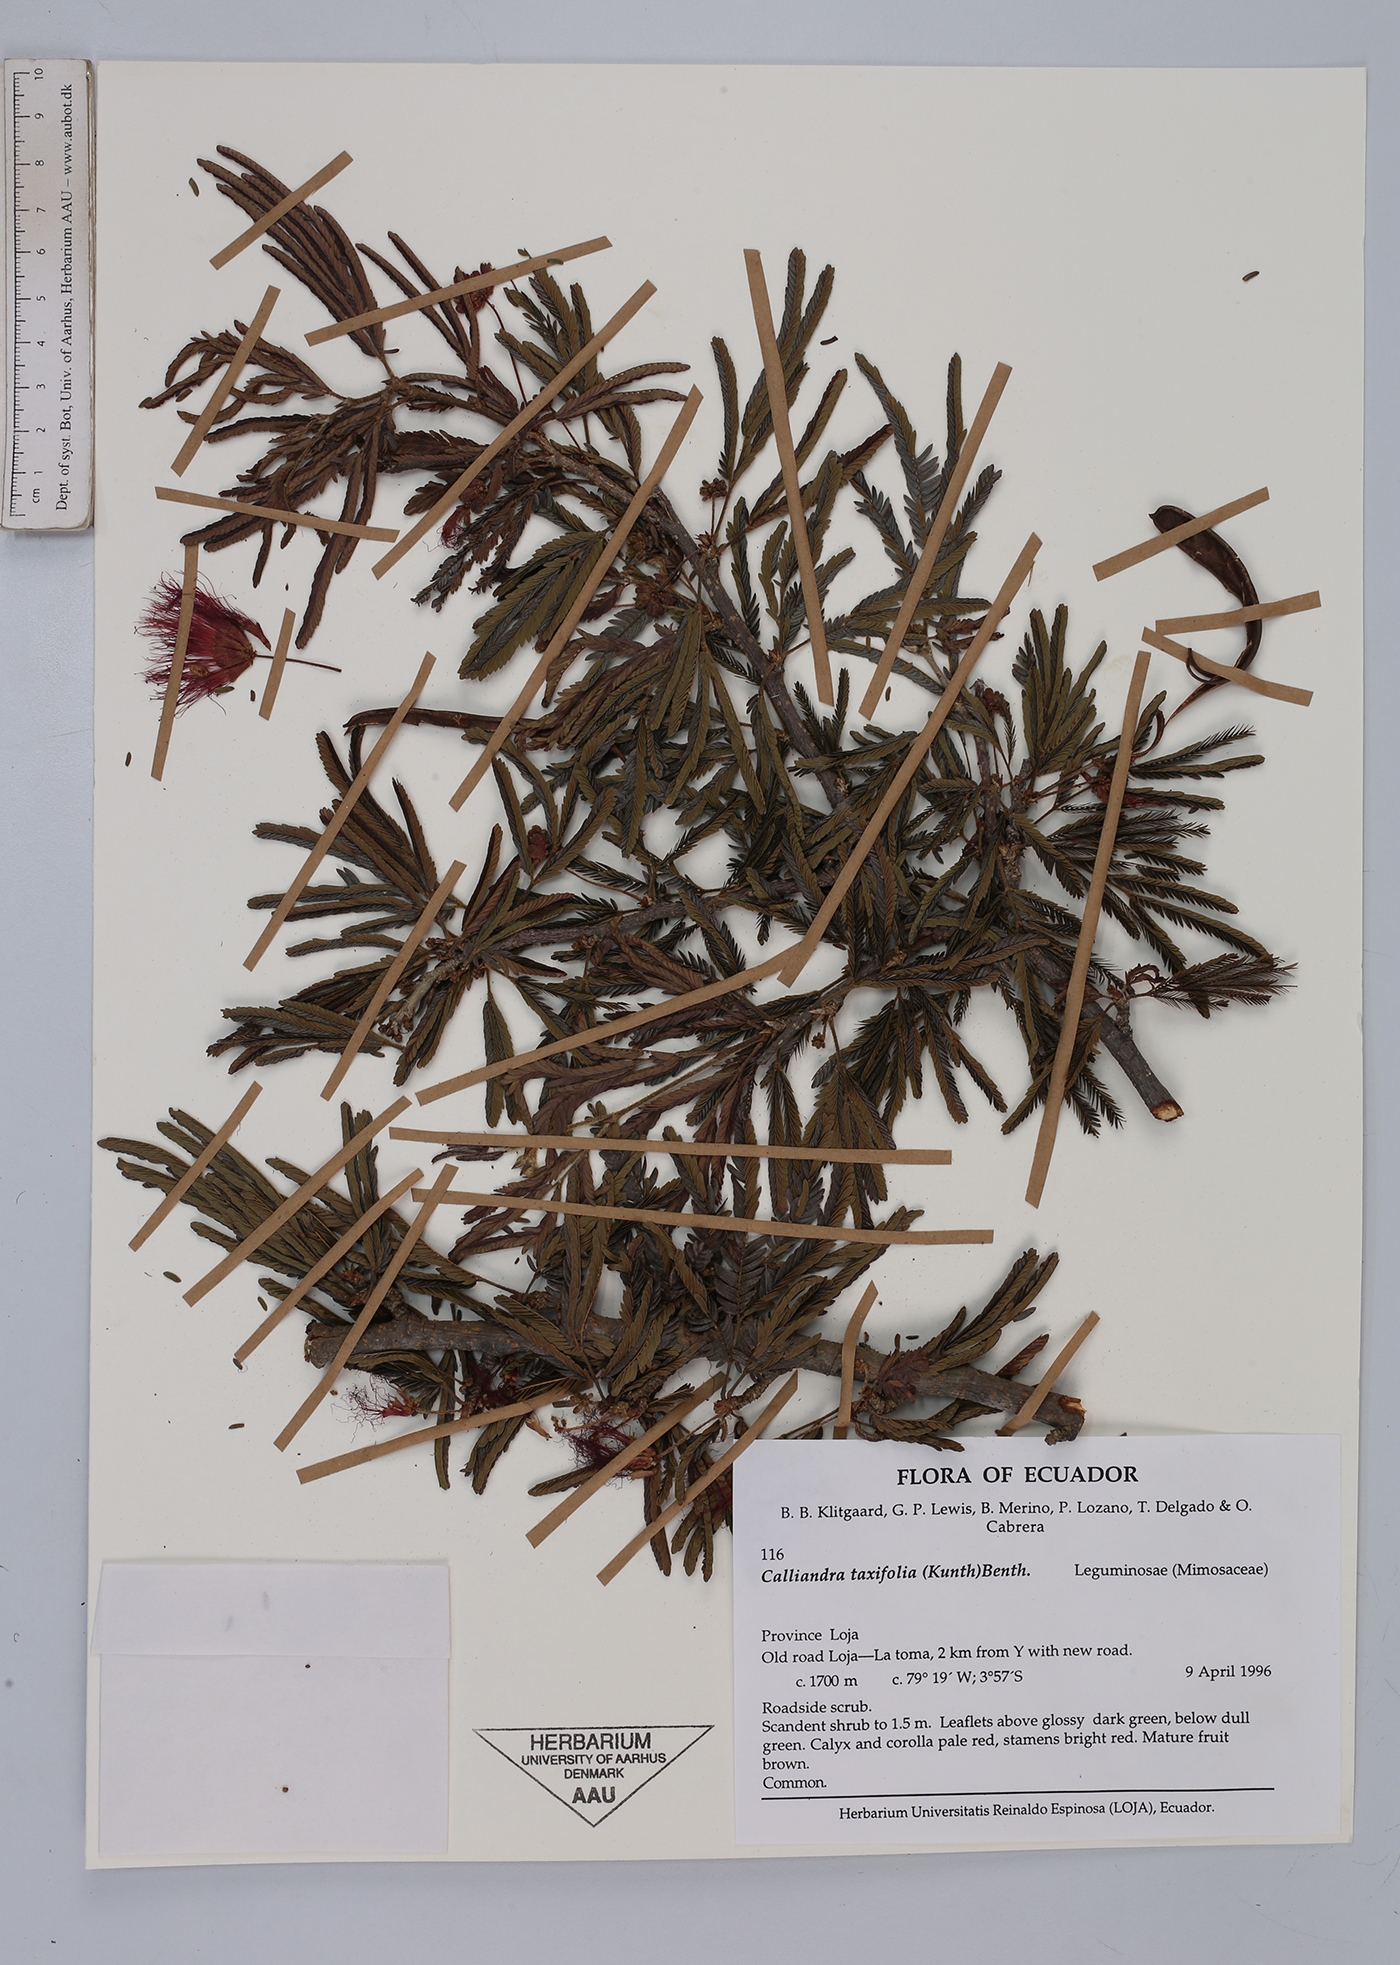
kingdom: Plantae
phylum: Tracheophyta
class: Magnoliopsida
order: Fabales
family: Fabaceae
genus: Calliandra
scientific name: Calliandra taxifolia
